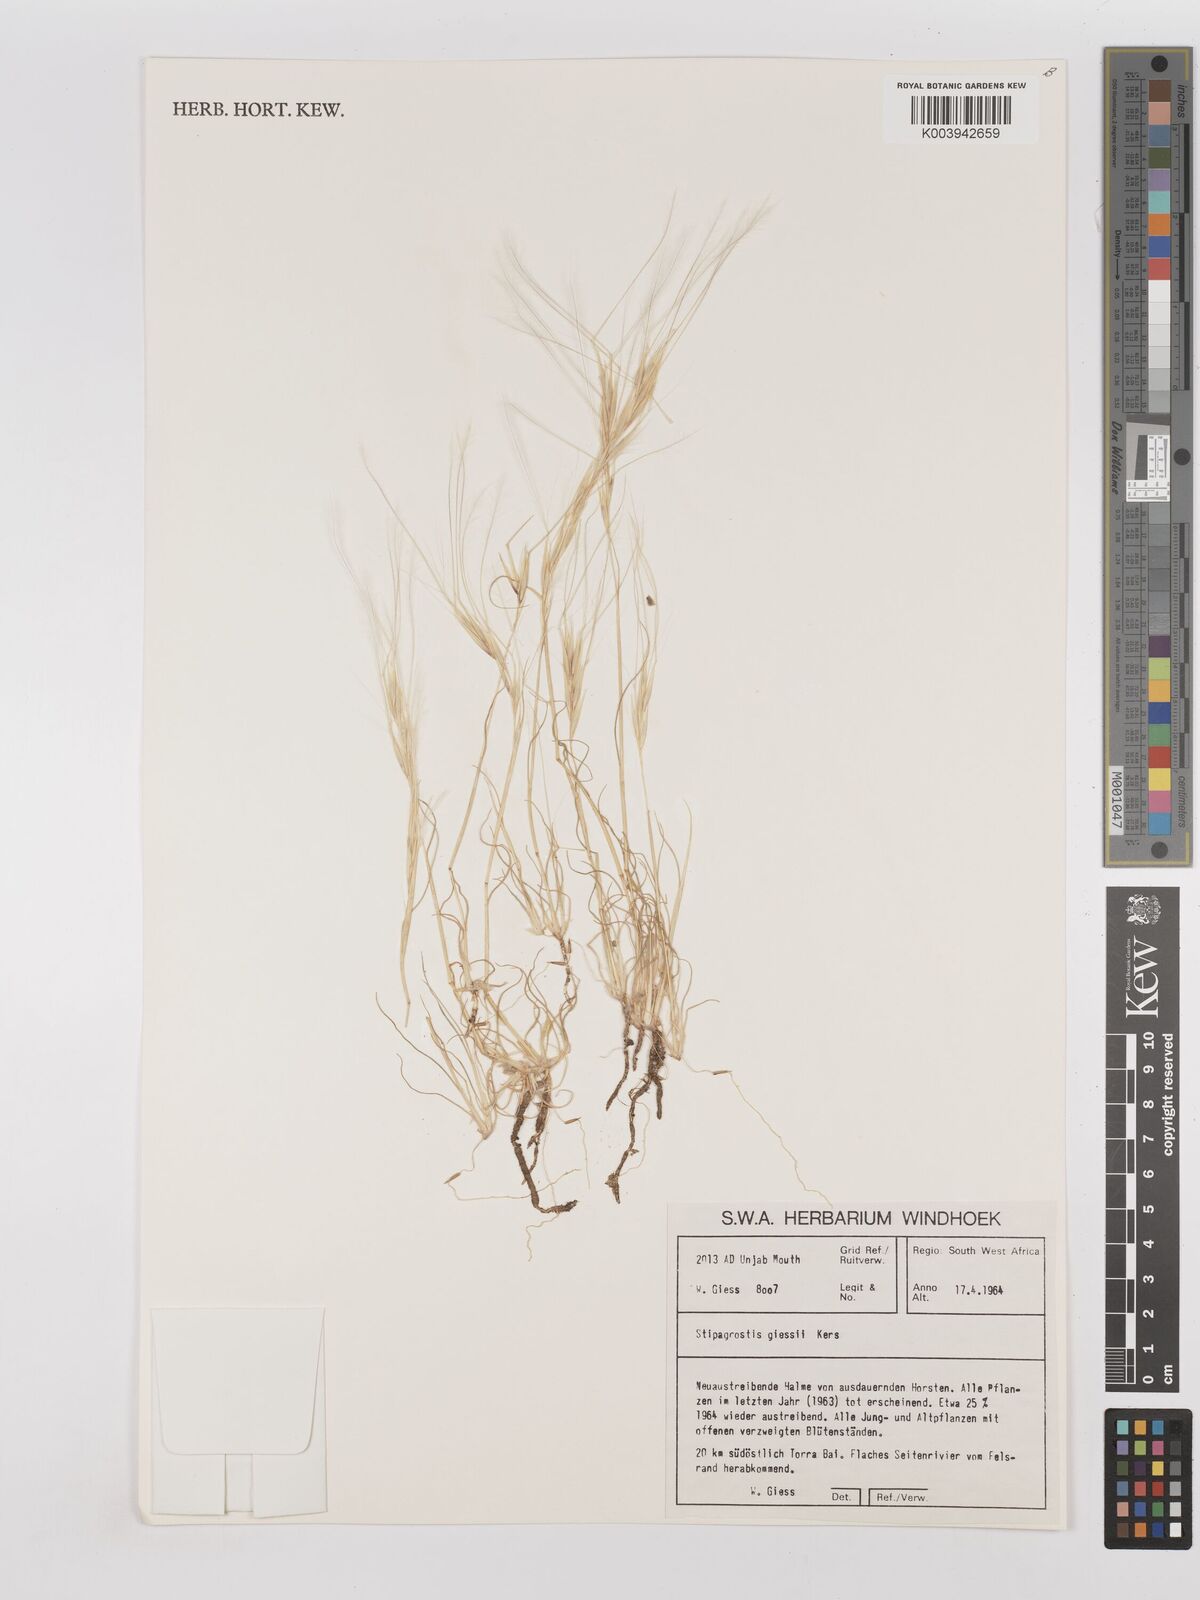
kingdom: Plantae
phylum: Tracheophyta
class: Liliopsida
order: Poales
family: Poaceae
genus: Stipagrostis
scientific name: Stipagrostis giessii
